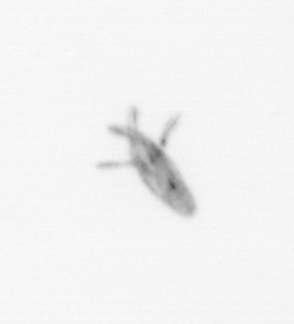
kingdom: Animalia
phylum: Arthropoda
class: Maxillopoda
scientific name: Maxillopoda
